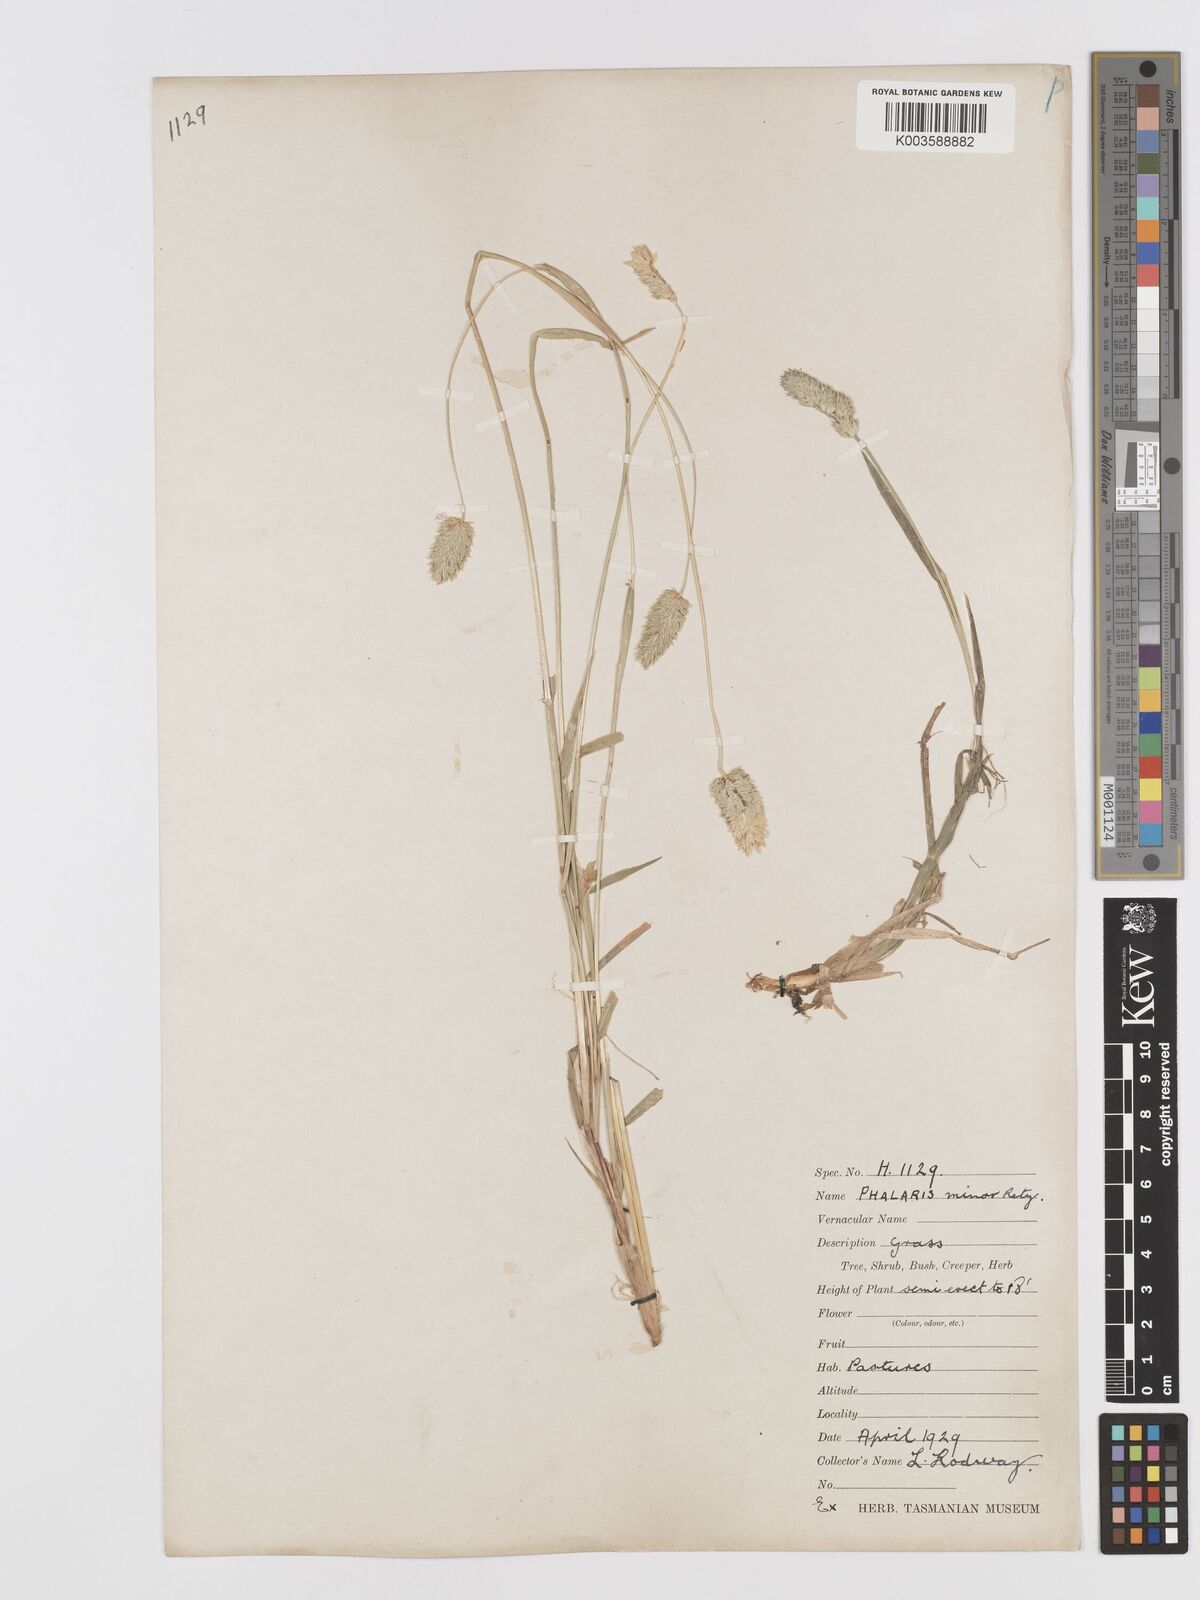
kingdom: Plantae
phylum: Tracheophyta
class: Liliopsida
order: Poales
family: Poaceae
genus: Phalaris
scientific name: Phalaris minor
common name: Littleseed canarygrass
